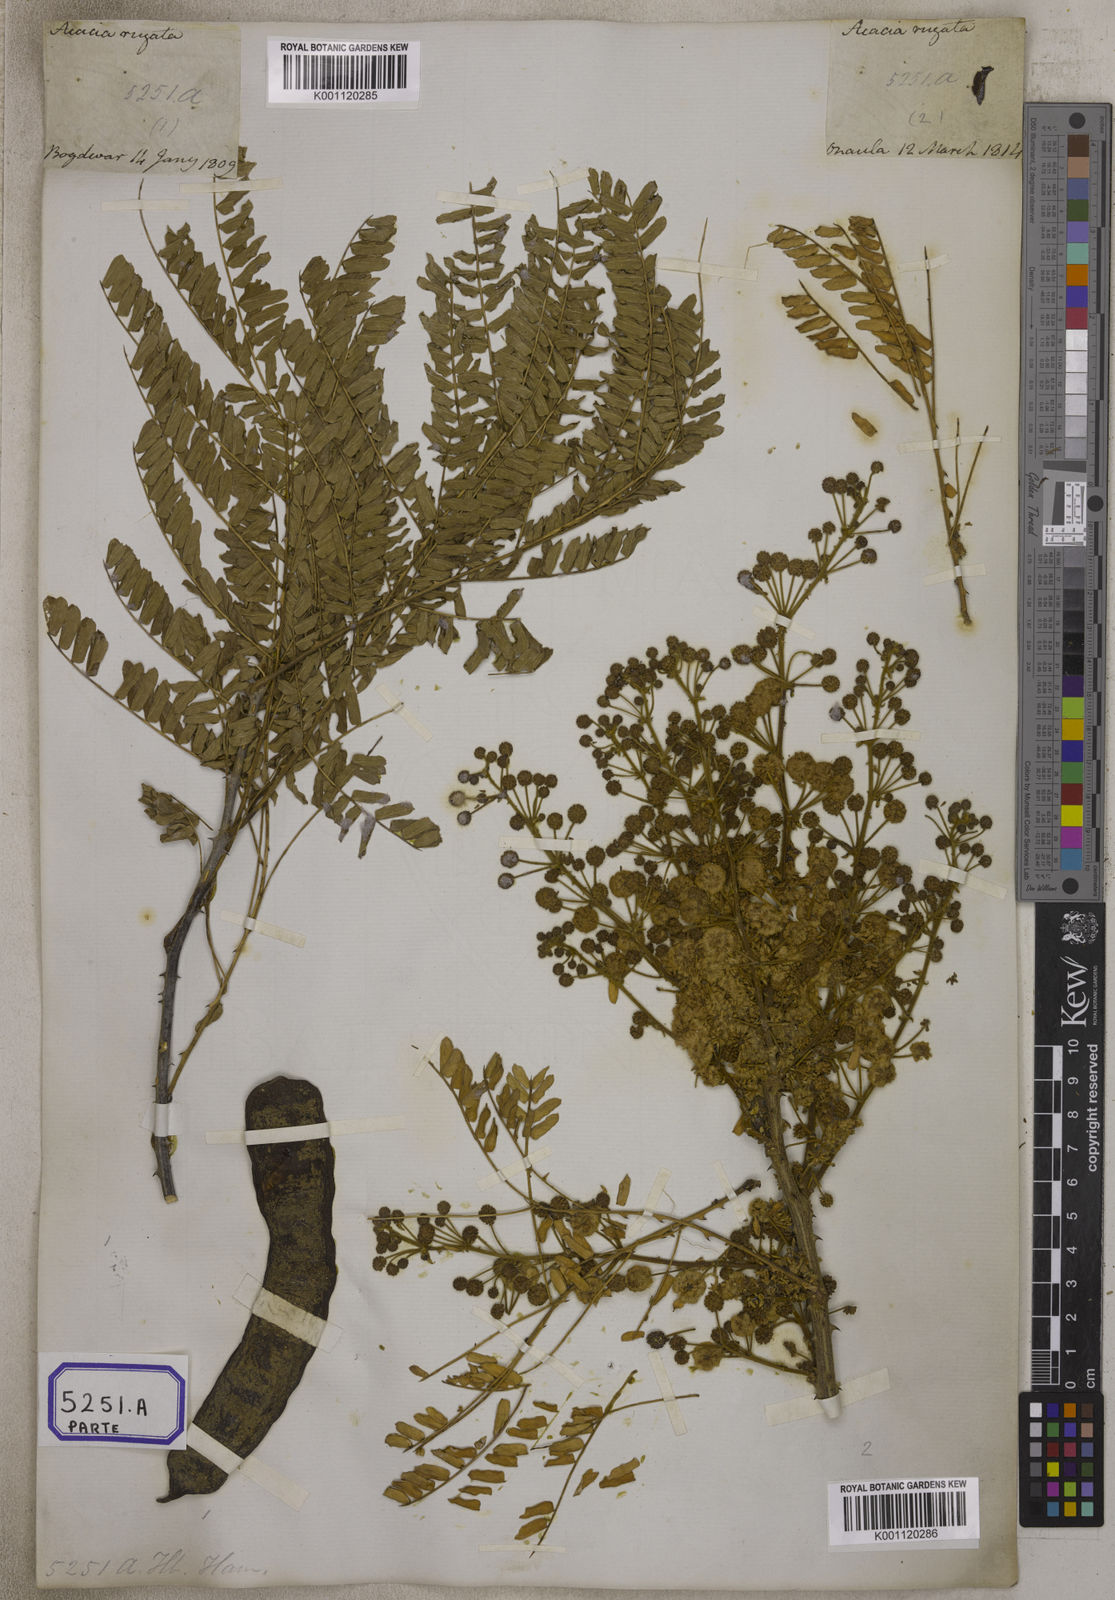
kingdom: Plantae
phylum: Tracheophyta
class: Magnoliopsida
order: Fabales
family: Fabaceae
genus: Acacia
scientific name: Acacia
